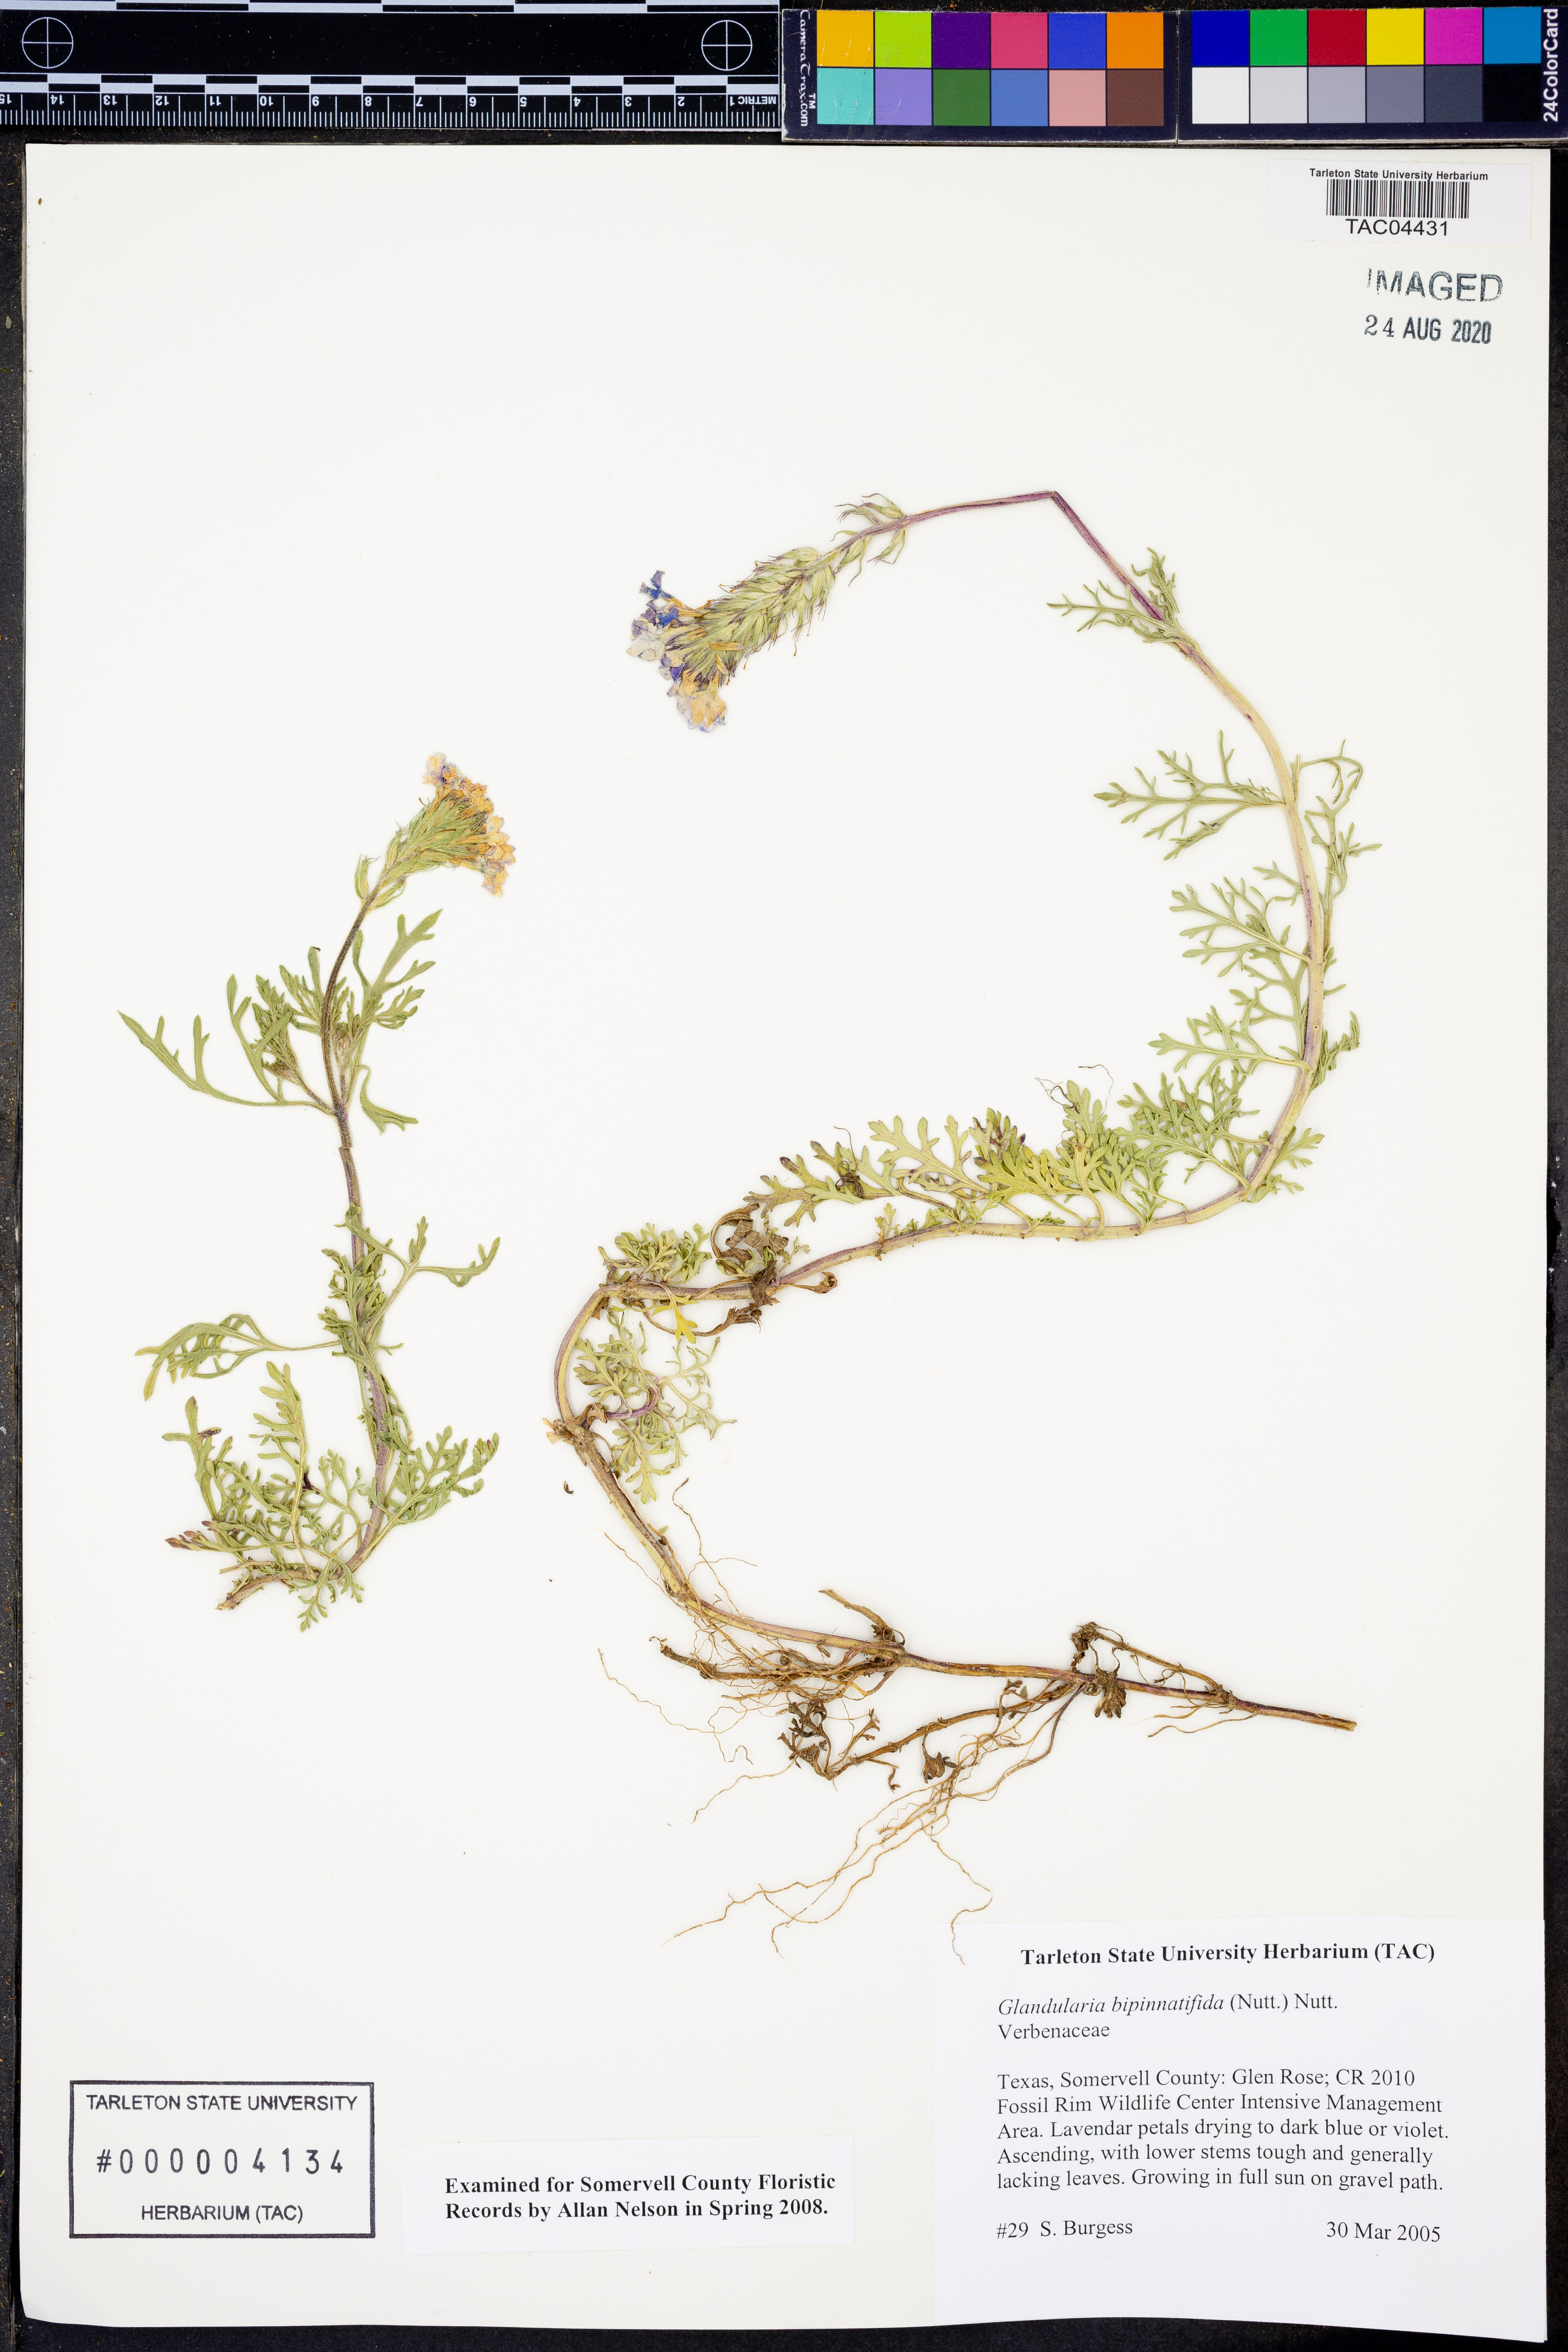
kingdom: Plantae
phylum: Tracheophyta
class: Magnoliopsida
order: Lamiales
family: Verbenaceae
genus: Verbena
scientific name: Verbena bipinnatifida
